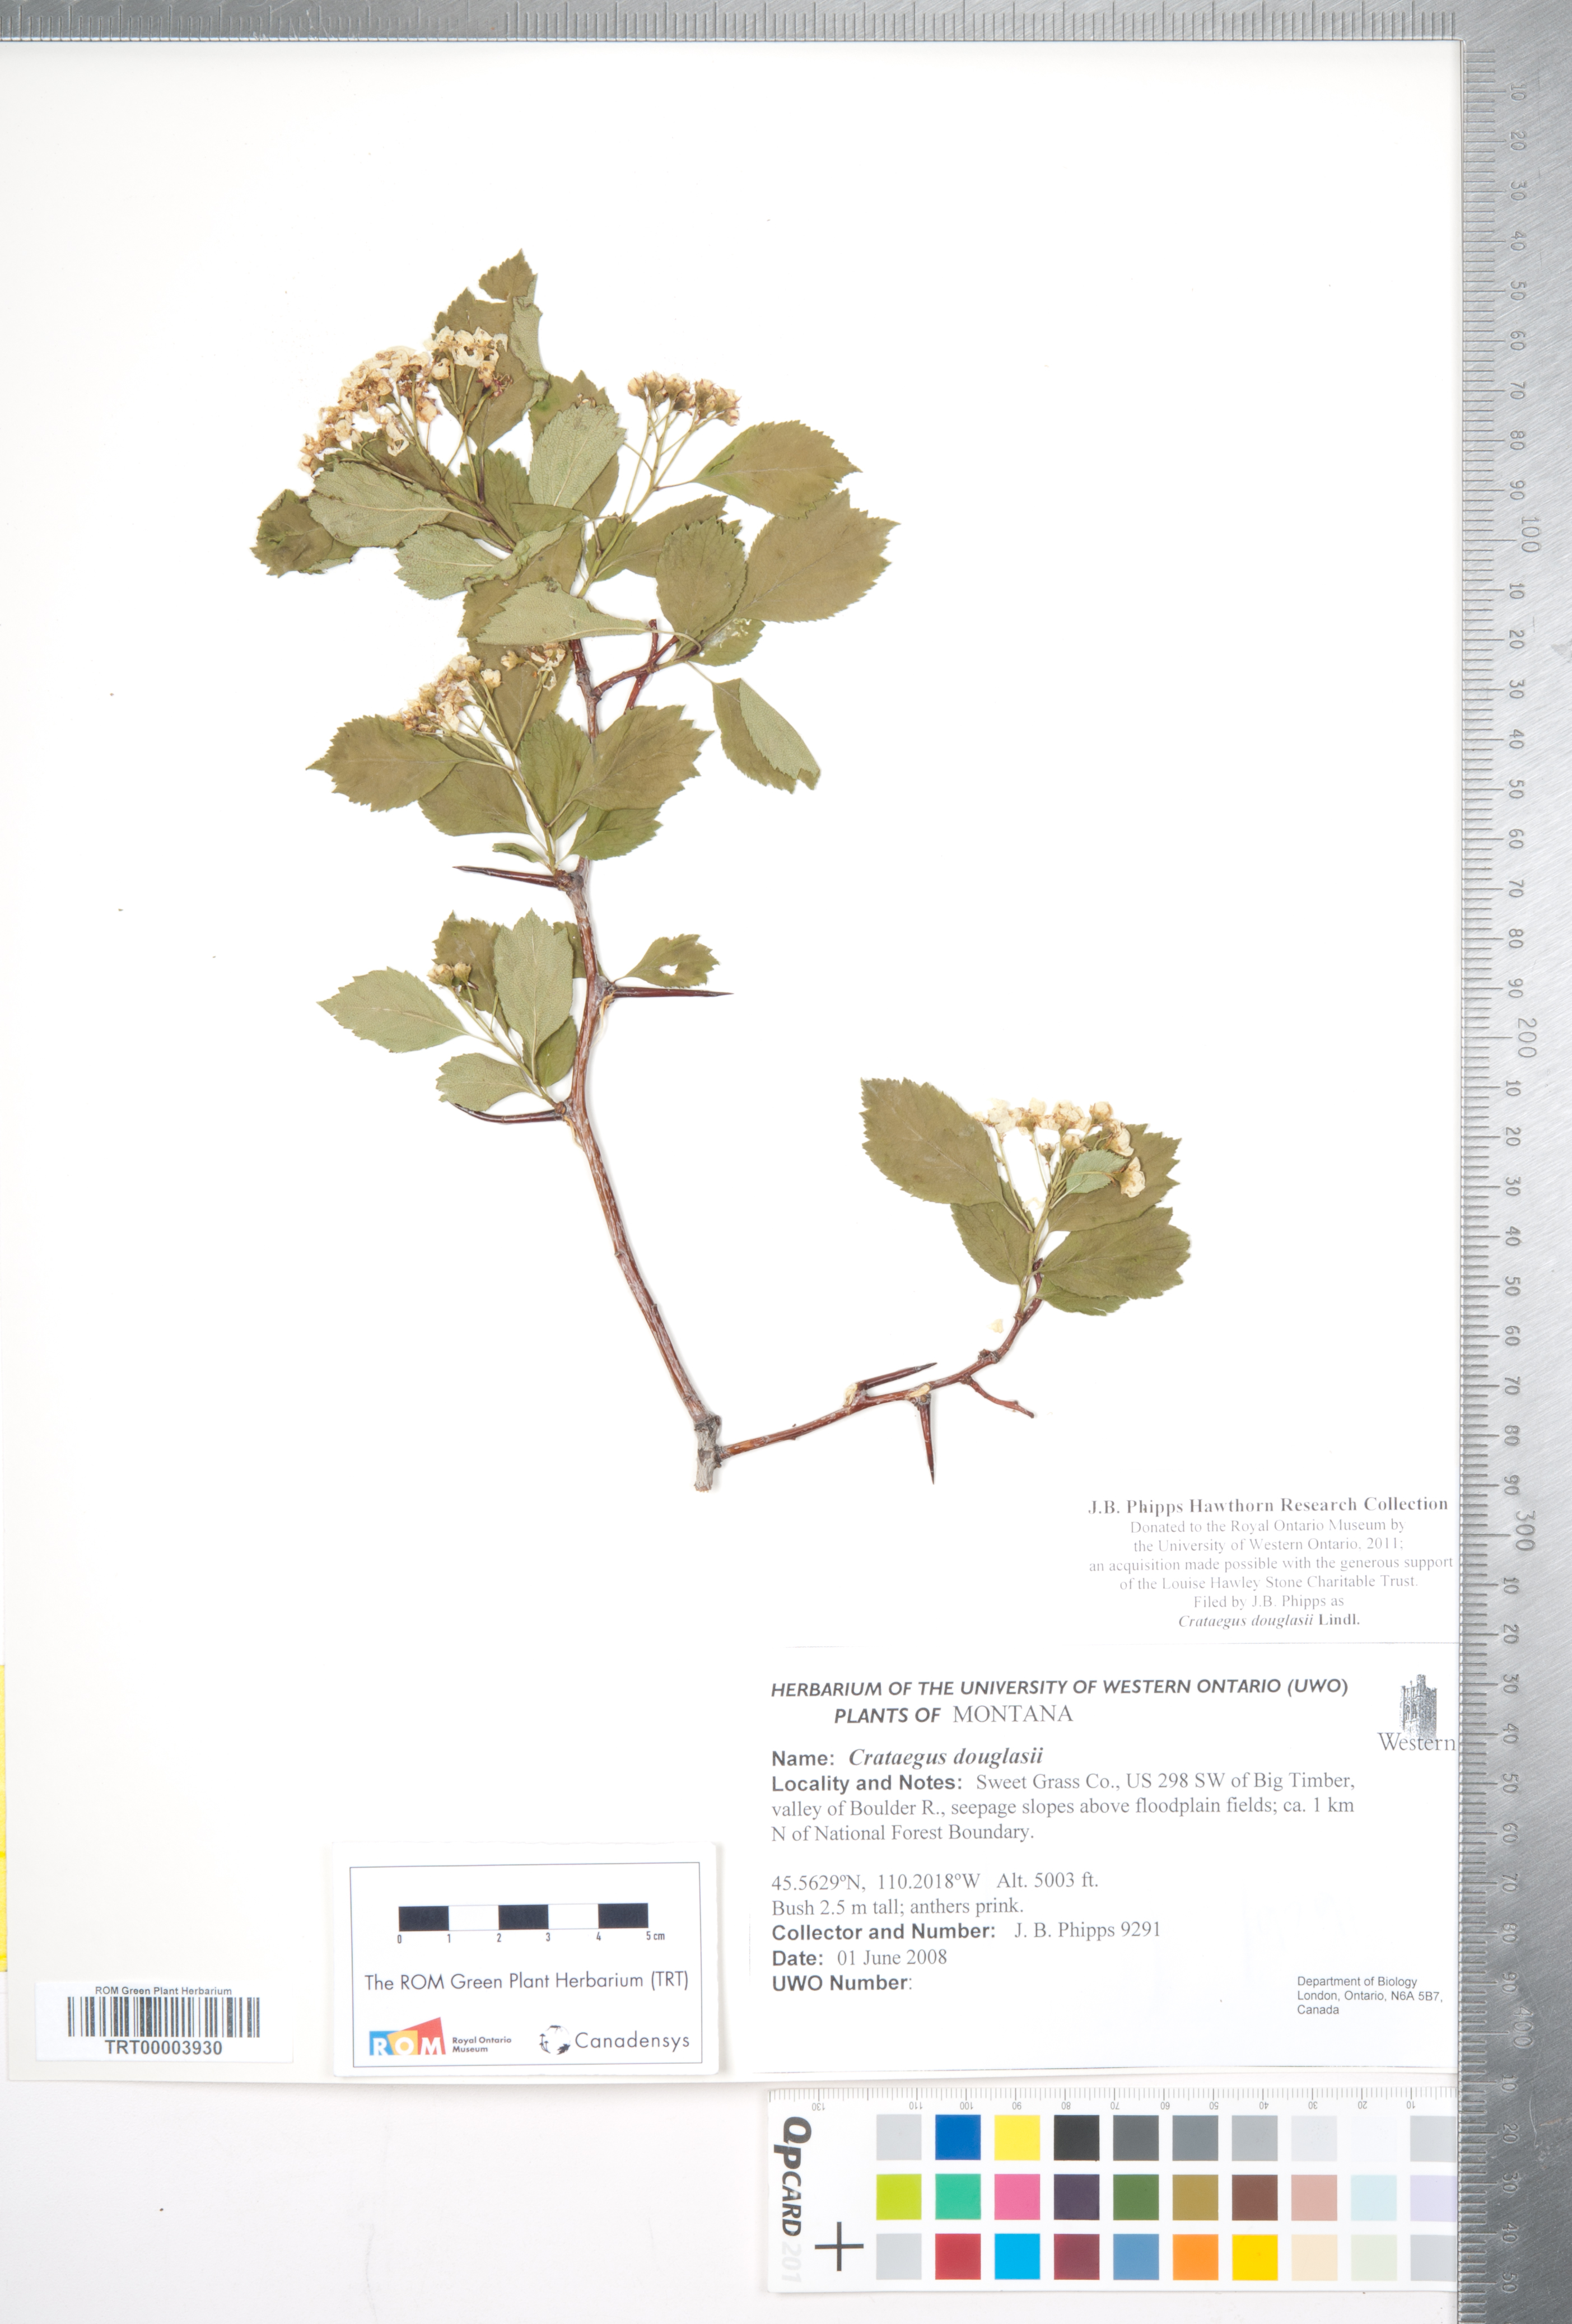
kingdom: Plantae
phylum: Tracheophyta
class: Magnoliopsida
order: Rosales
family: Rosaceae
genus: Crataegus
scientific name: Crataegus douglasii
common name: Black hawthorn
